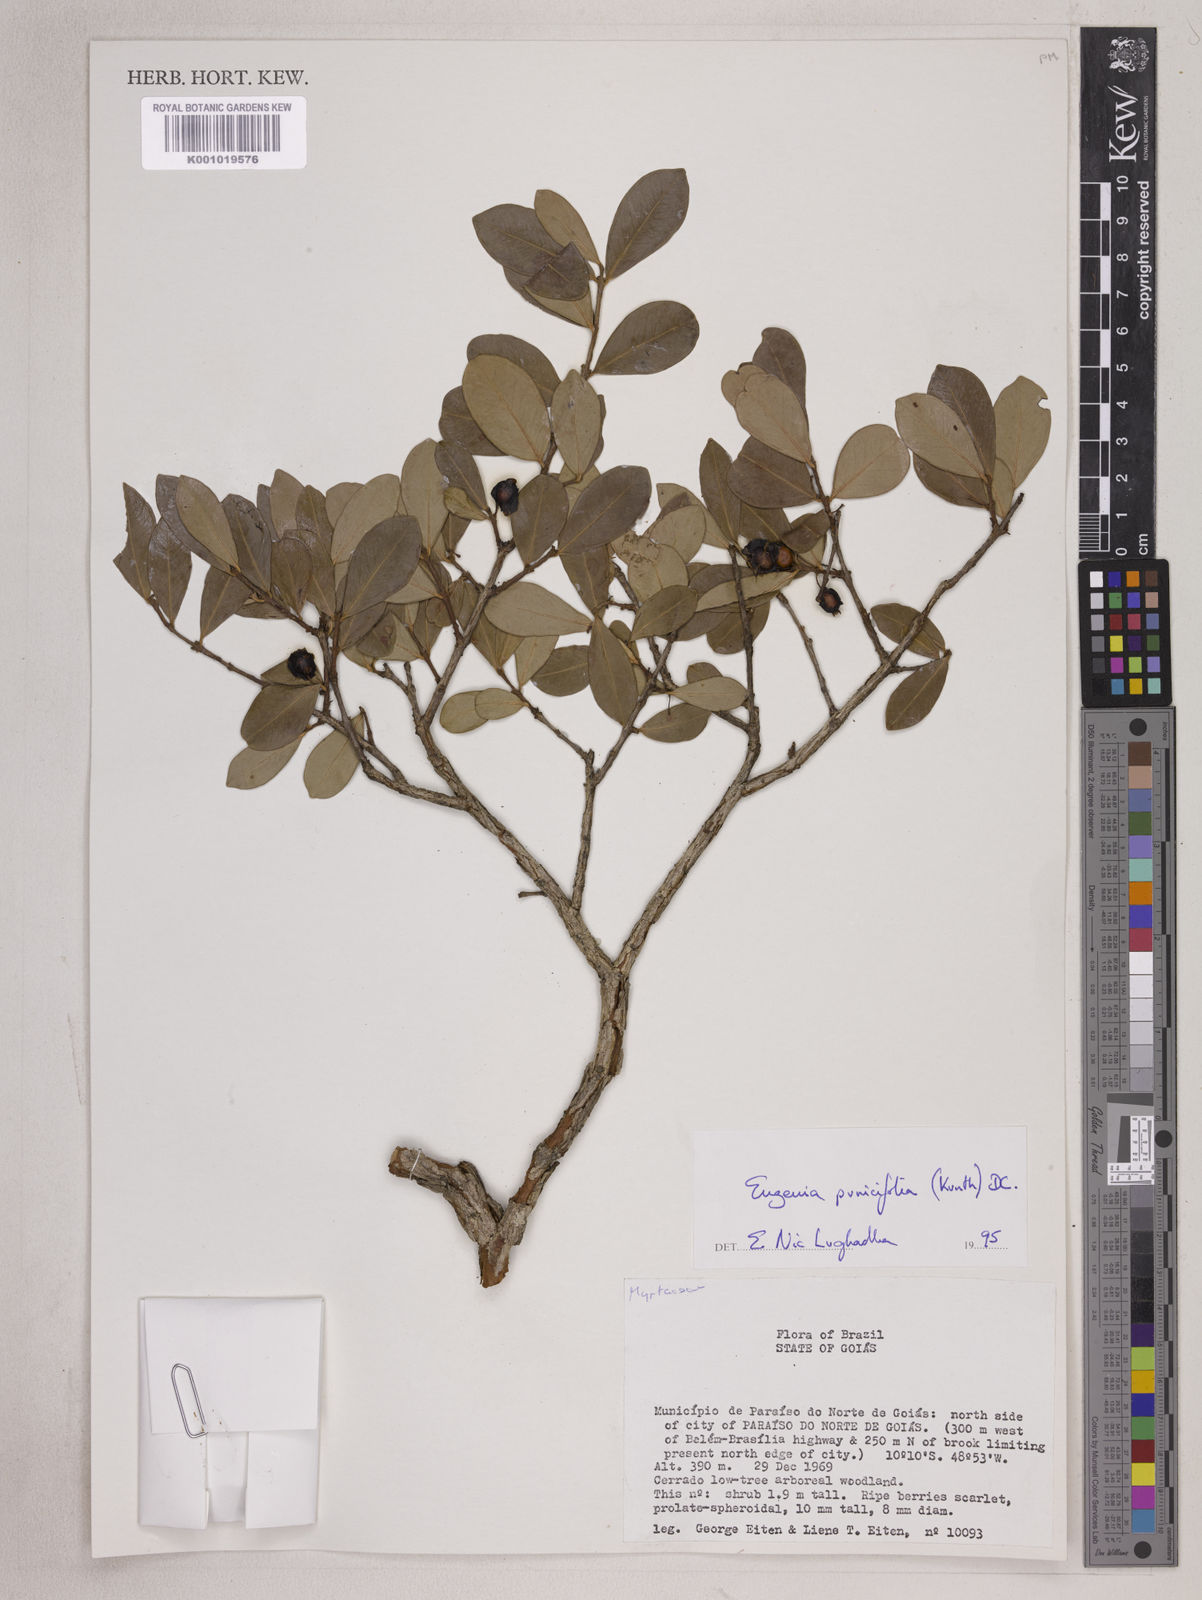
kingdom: Plantae
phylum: Tracheophyta
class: Magnoliopsida
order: Myrtales
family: Myrtaceae
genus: Eugenia
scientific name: Eugenia punicifolia
